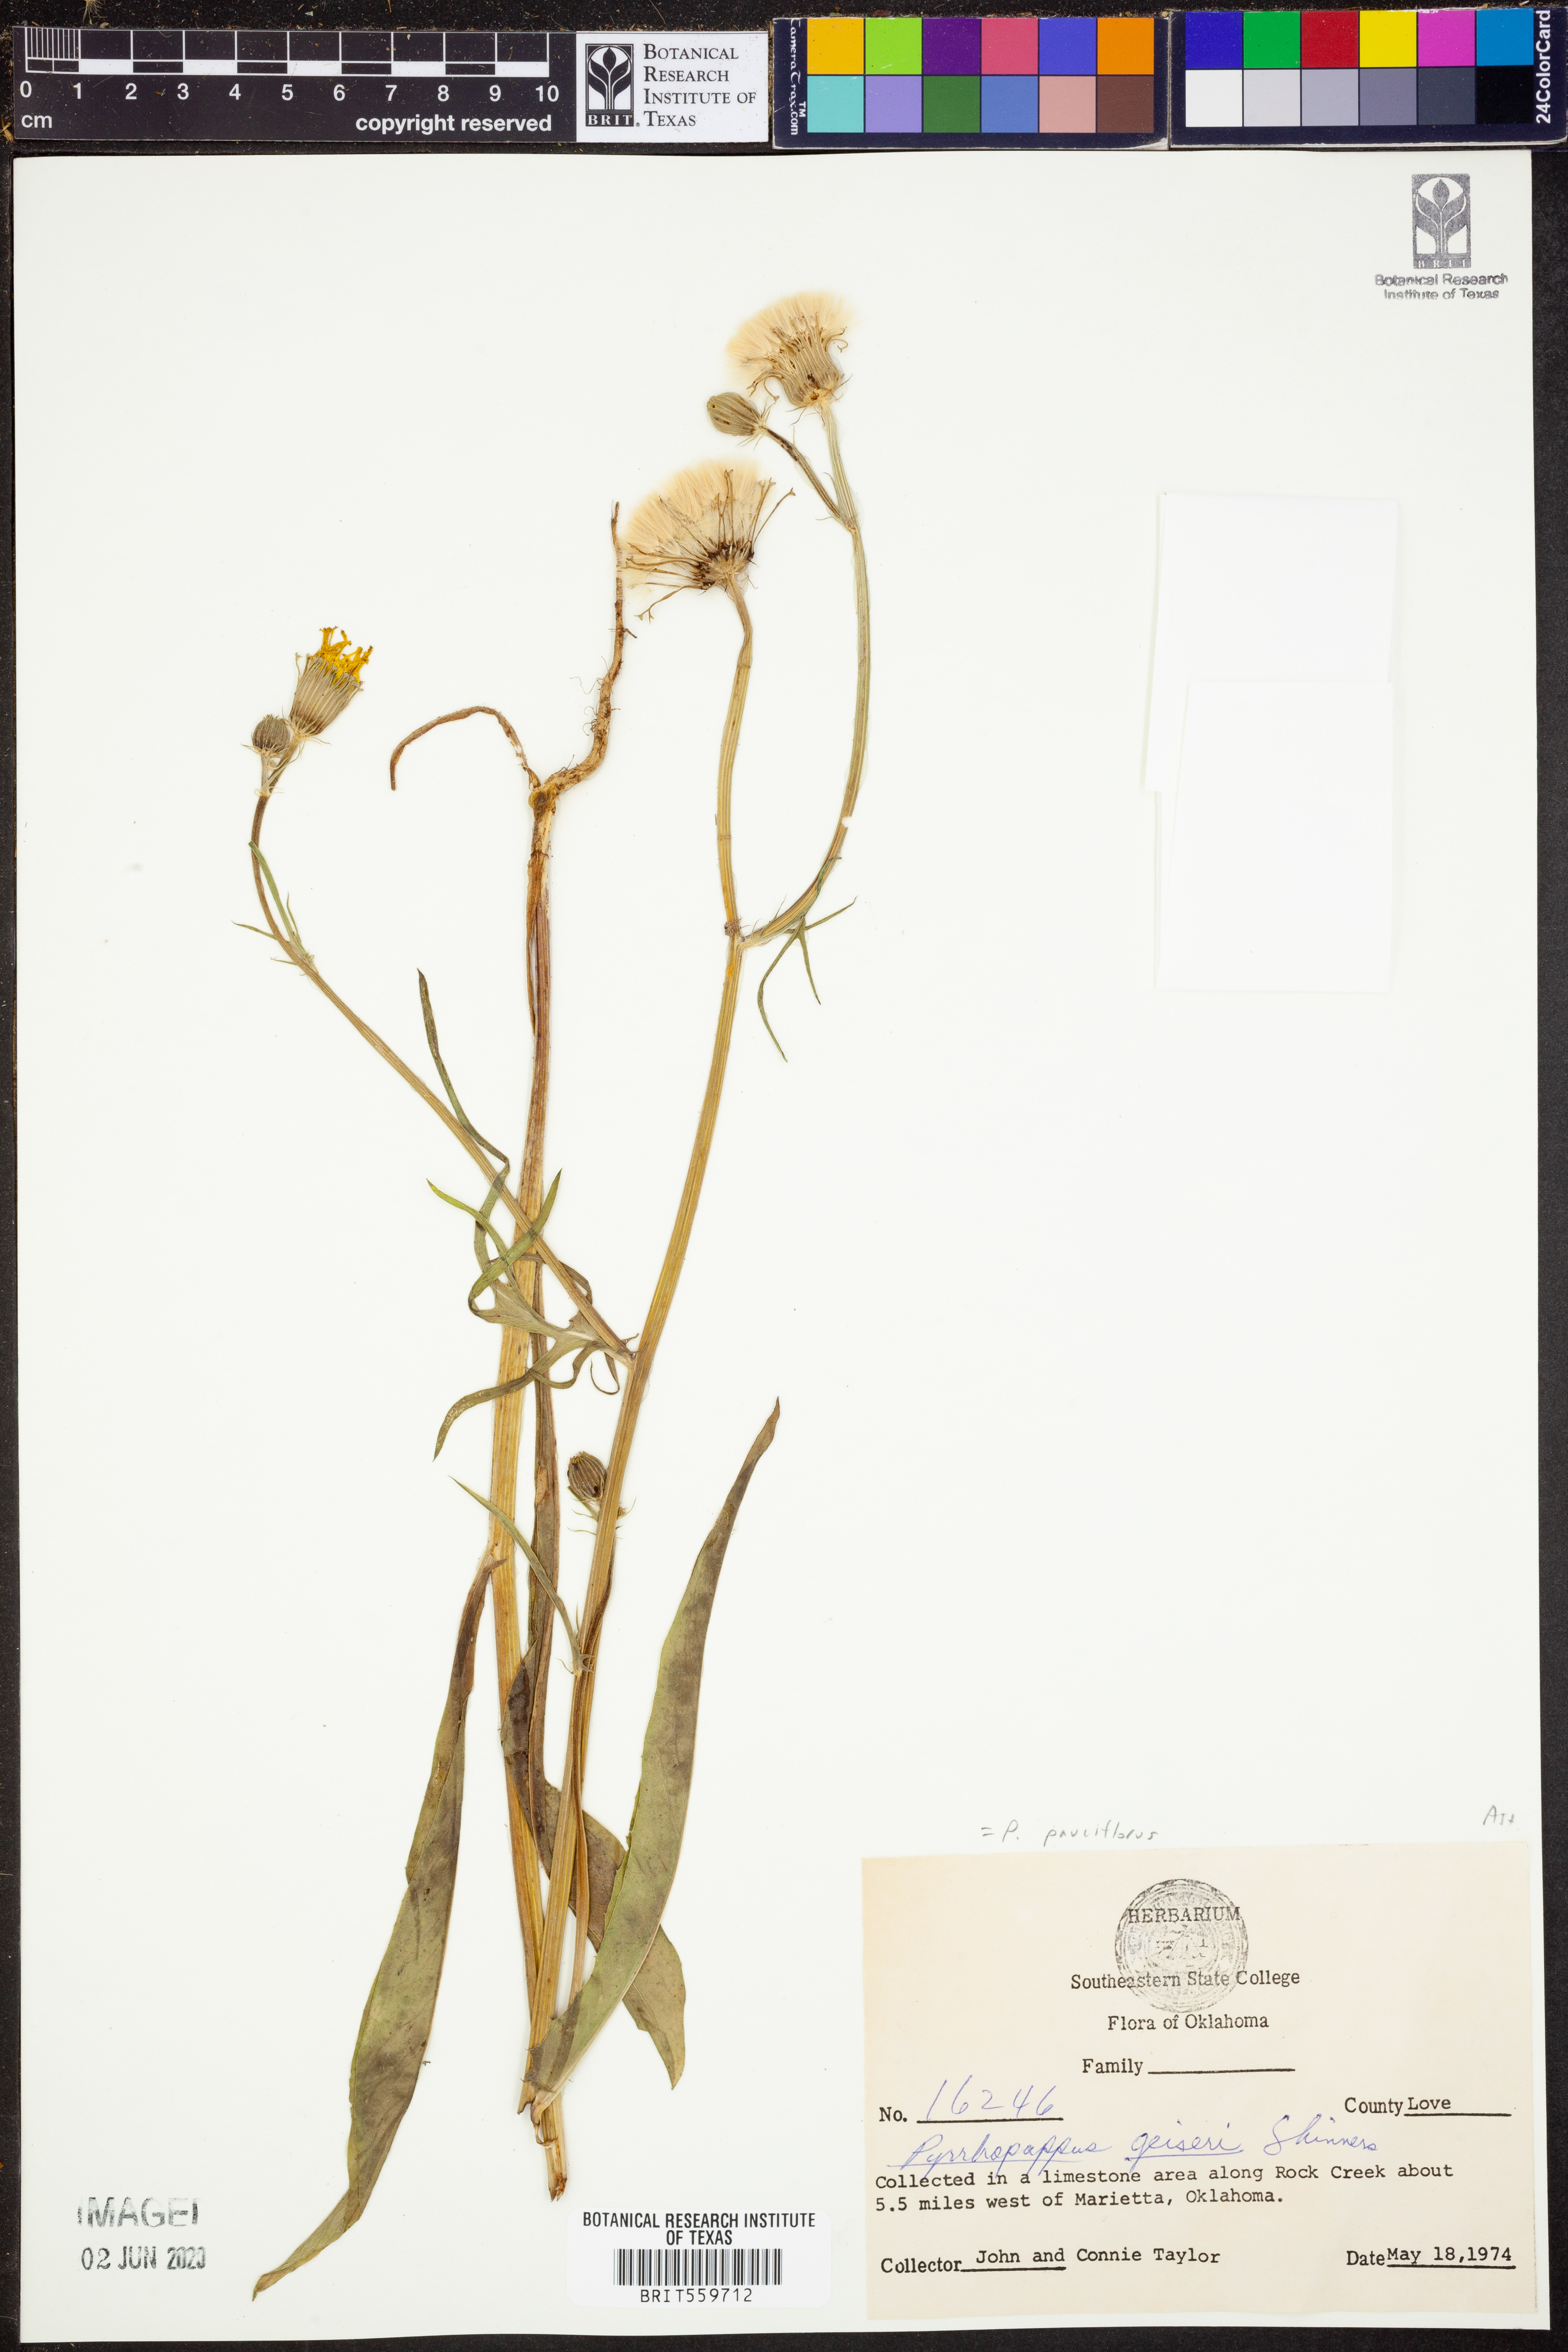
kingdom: Plantae
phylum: Tracheophyta
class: Magnoliopsida
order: Asterales
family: Asteraceae
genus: Pyrrhopappus
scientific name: Pyrrhopappus pauciflorus
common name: Texas false dandelion
